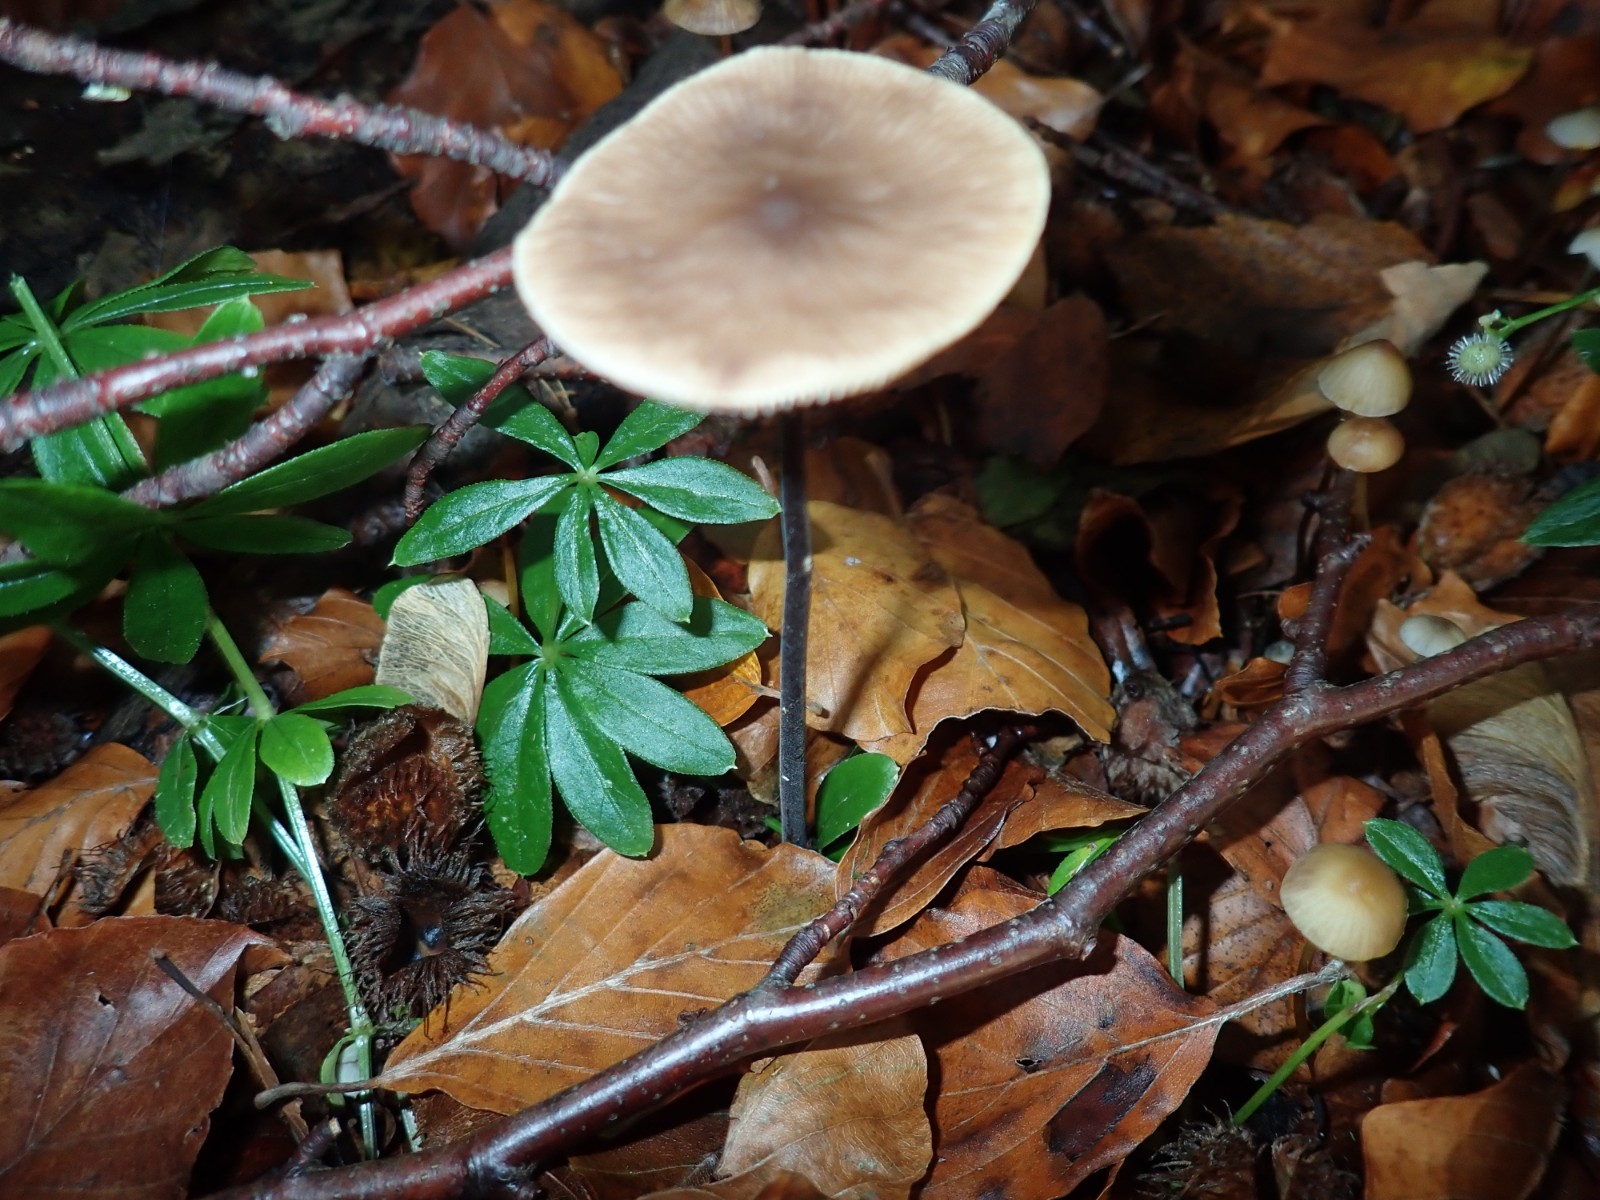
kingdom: Fungi
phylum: Basidiomycota
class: Agaricomycetes
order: Agaricales
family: Omphalotaceae
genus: Mycetinis
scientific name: Mycetinis alliaceus
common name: stor løghat
